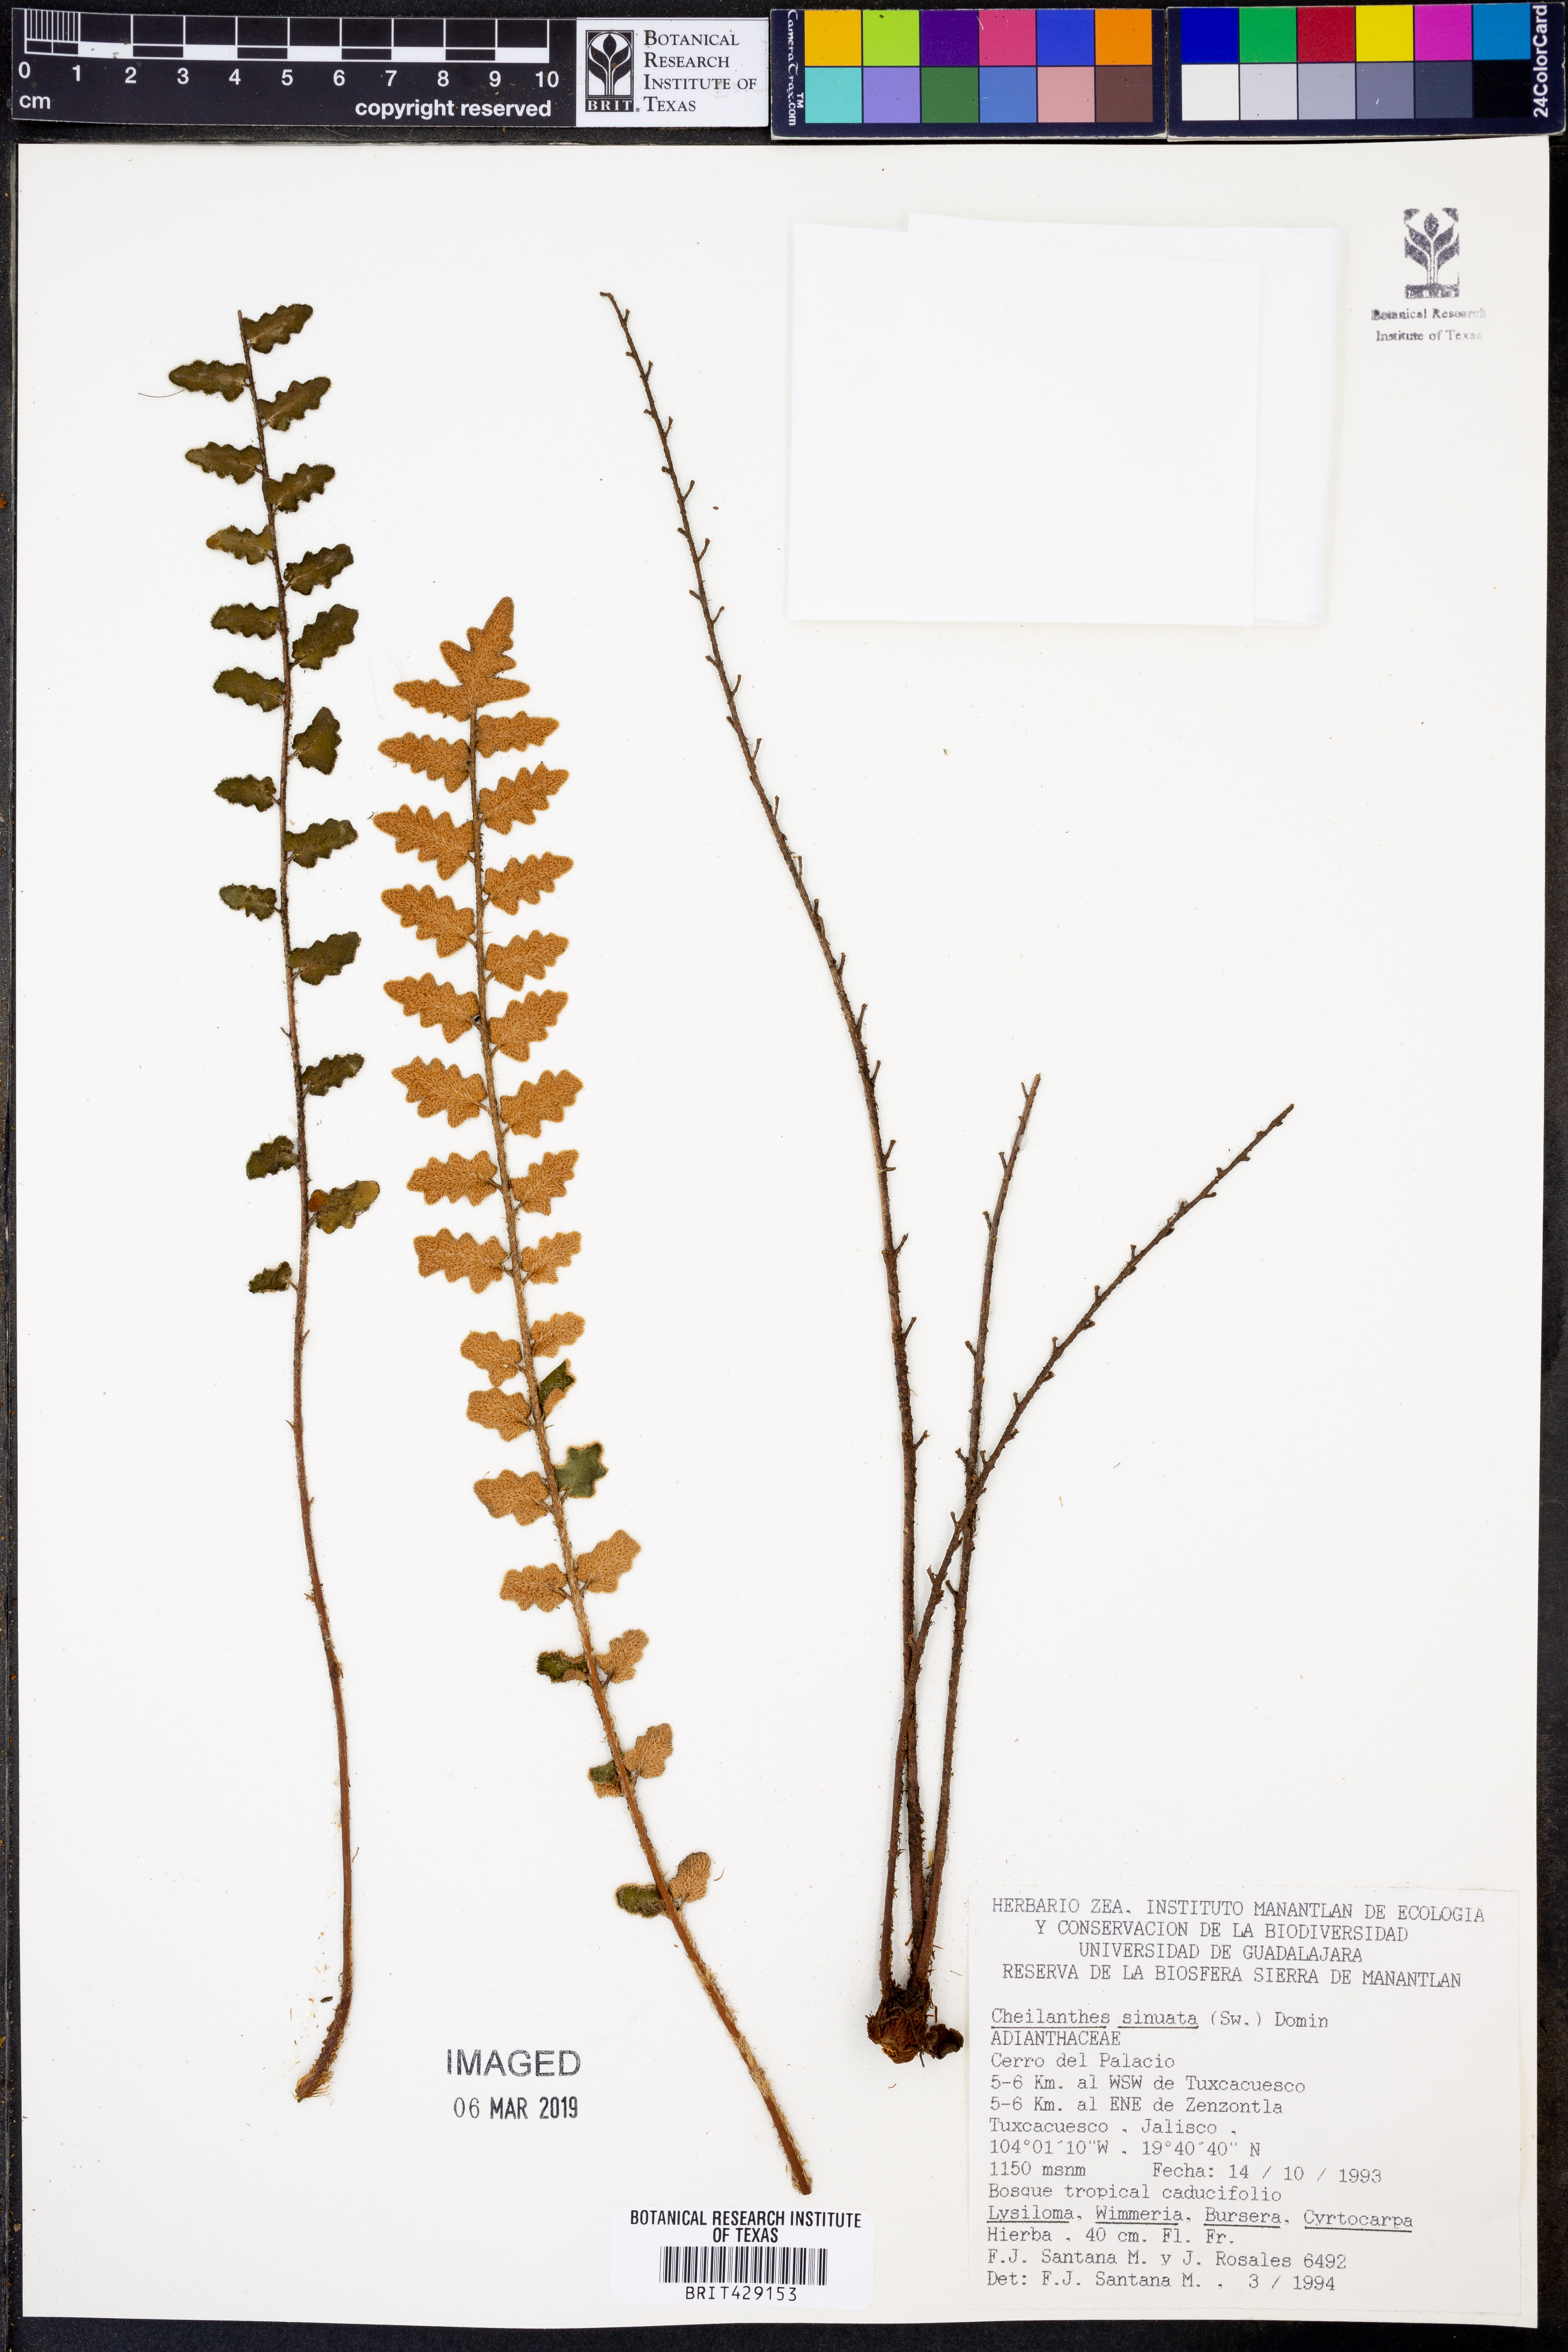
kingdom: Plantae
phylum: Tracheophyta
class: Polypodiopsida
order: Polypodiales
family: Pteridaceae
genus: Astrolepis
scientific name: Astrolepis sinuata
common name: Wavy scaly cloakfern
